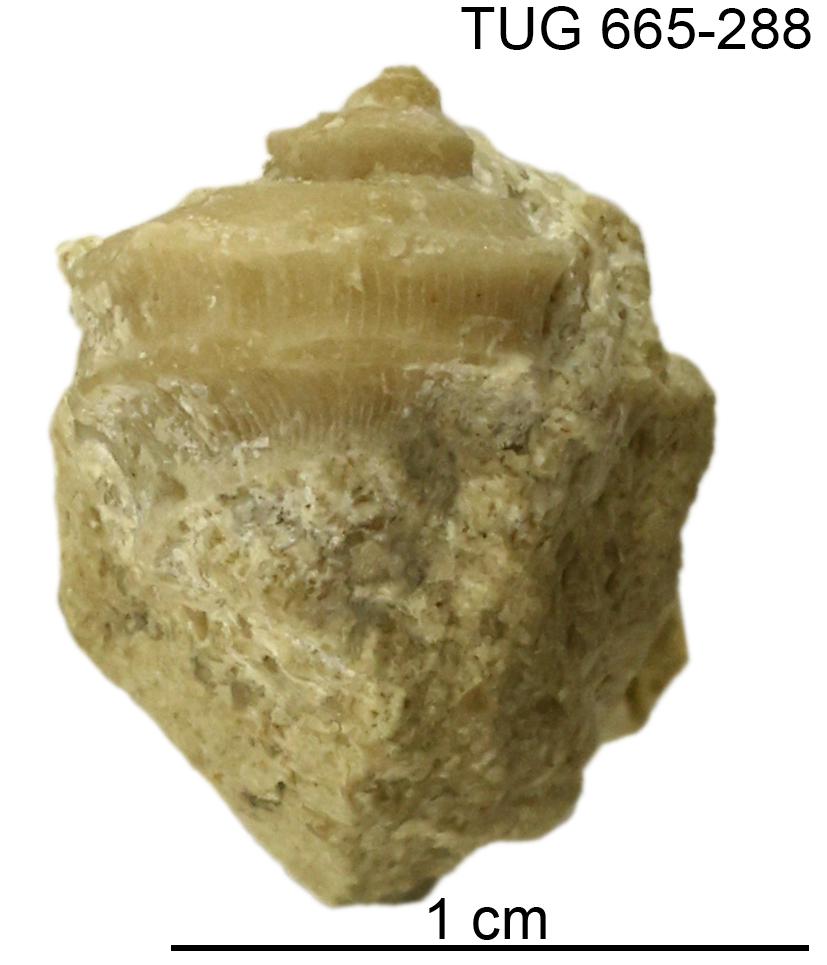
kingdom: Animalia
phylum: Mollusca
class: Gastropoda
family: Trochonematidae
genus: Trochonema
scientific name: Trochonema panderi
